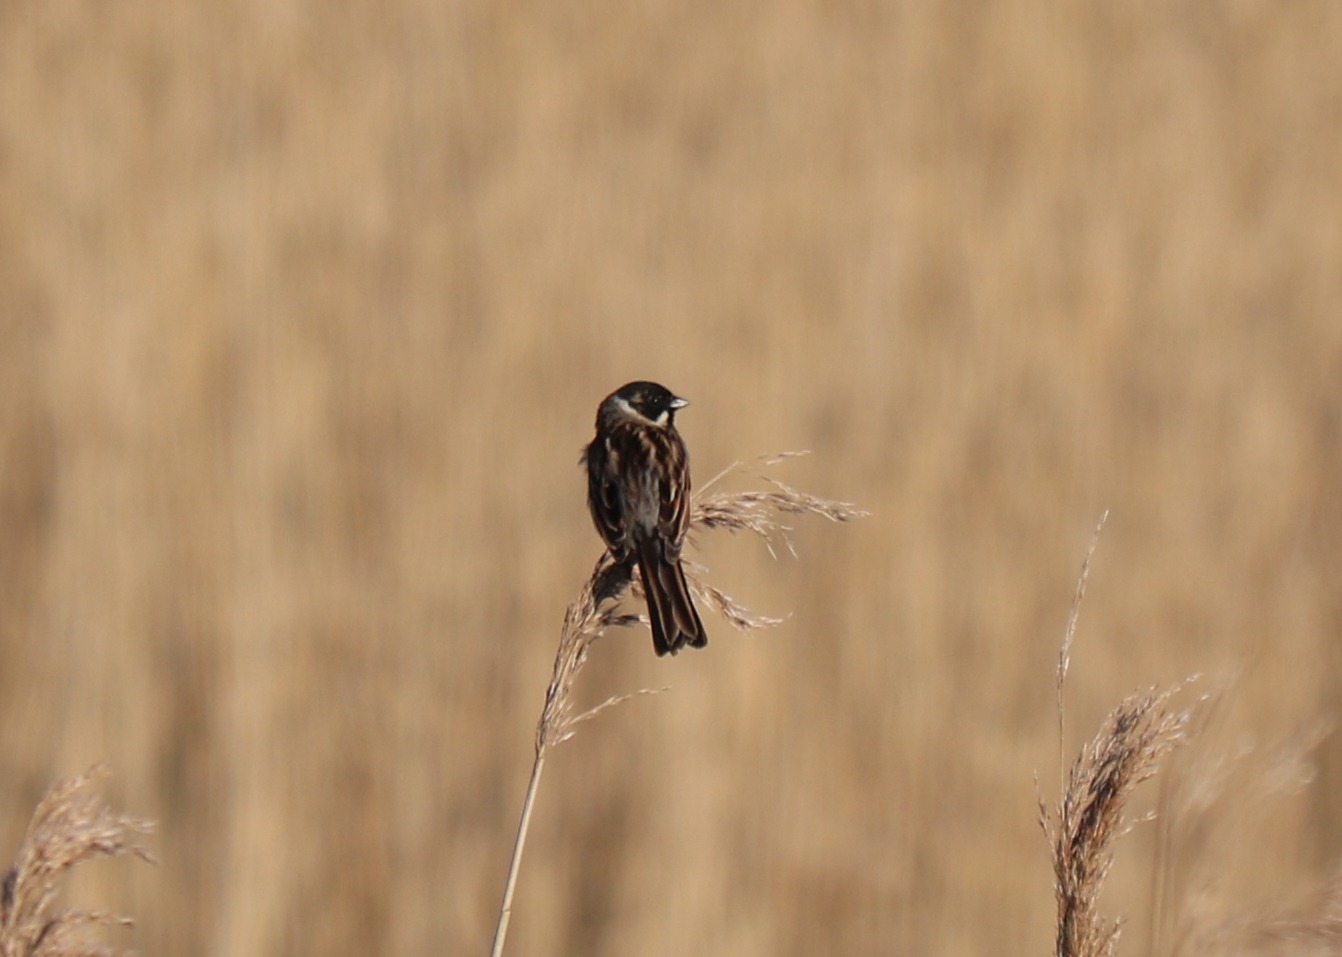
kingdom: Animalia
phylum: Chordata
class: Aves
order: Passeriformes
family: Emberizidae
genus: Emberiza
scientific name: Emberiza schoeniclus
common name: Rørspurv
